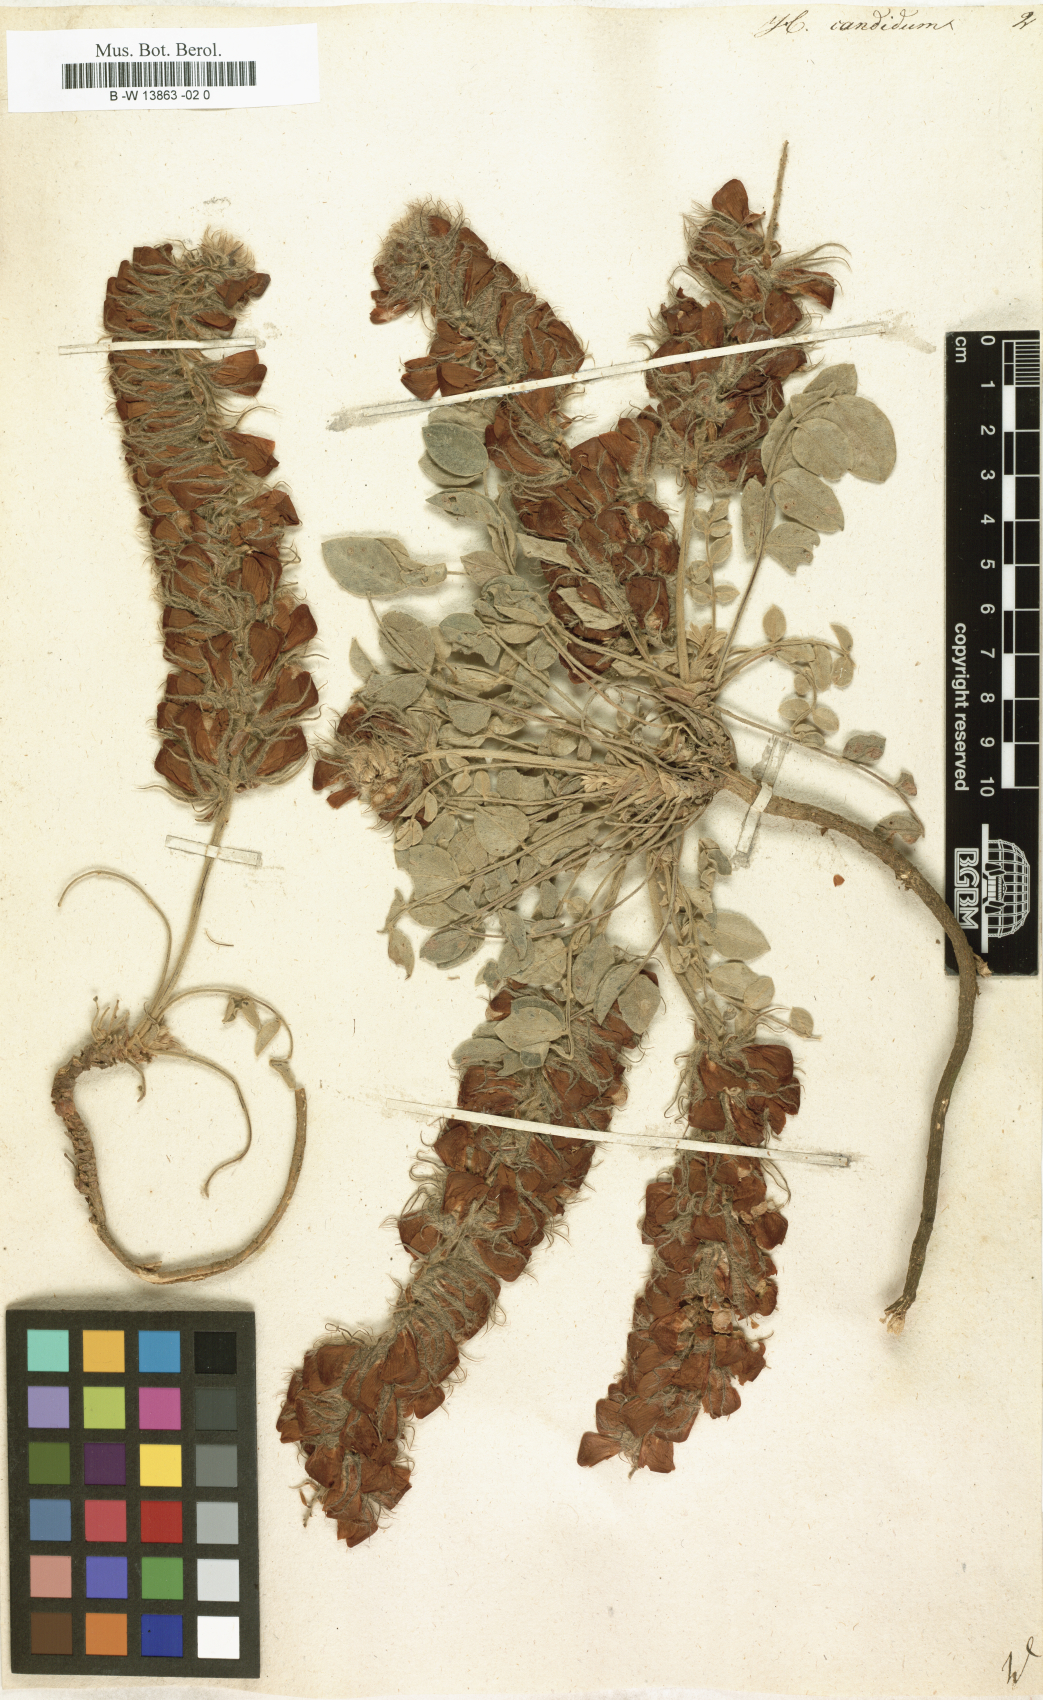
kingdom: Plantae
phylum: Tracheophyta
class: Magnoliopsida
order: Fabales
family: Fabaceae
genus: Hedysarum
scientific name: Hedysarum candidum
